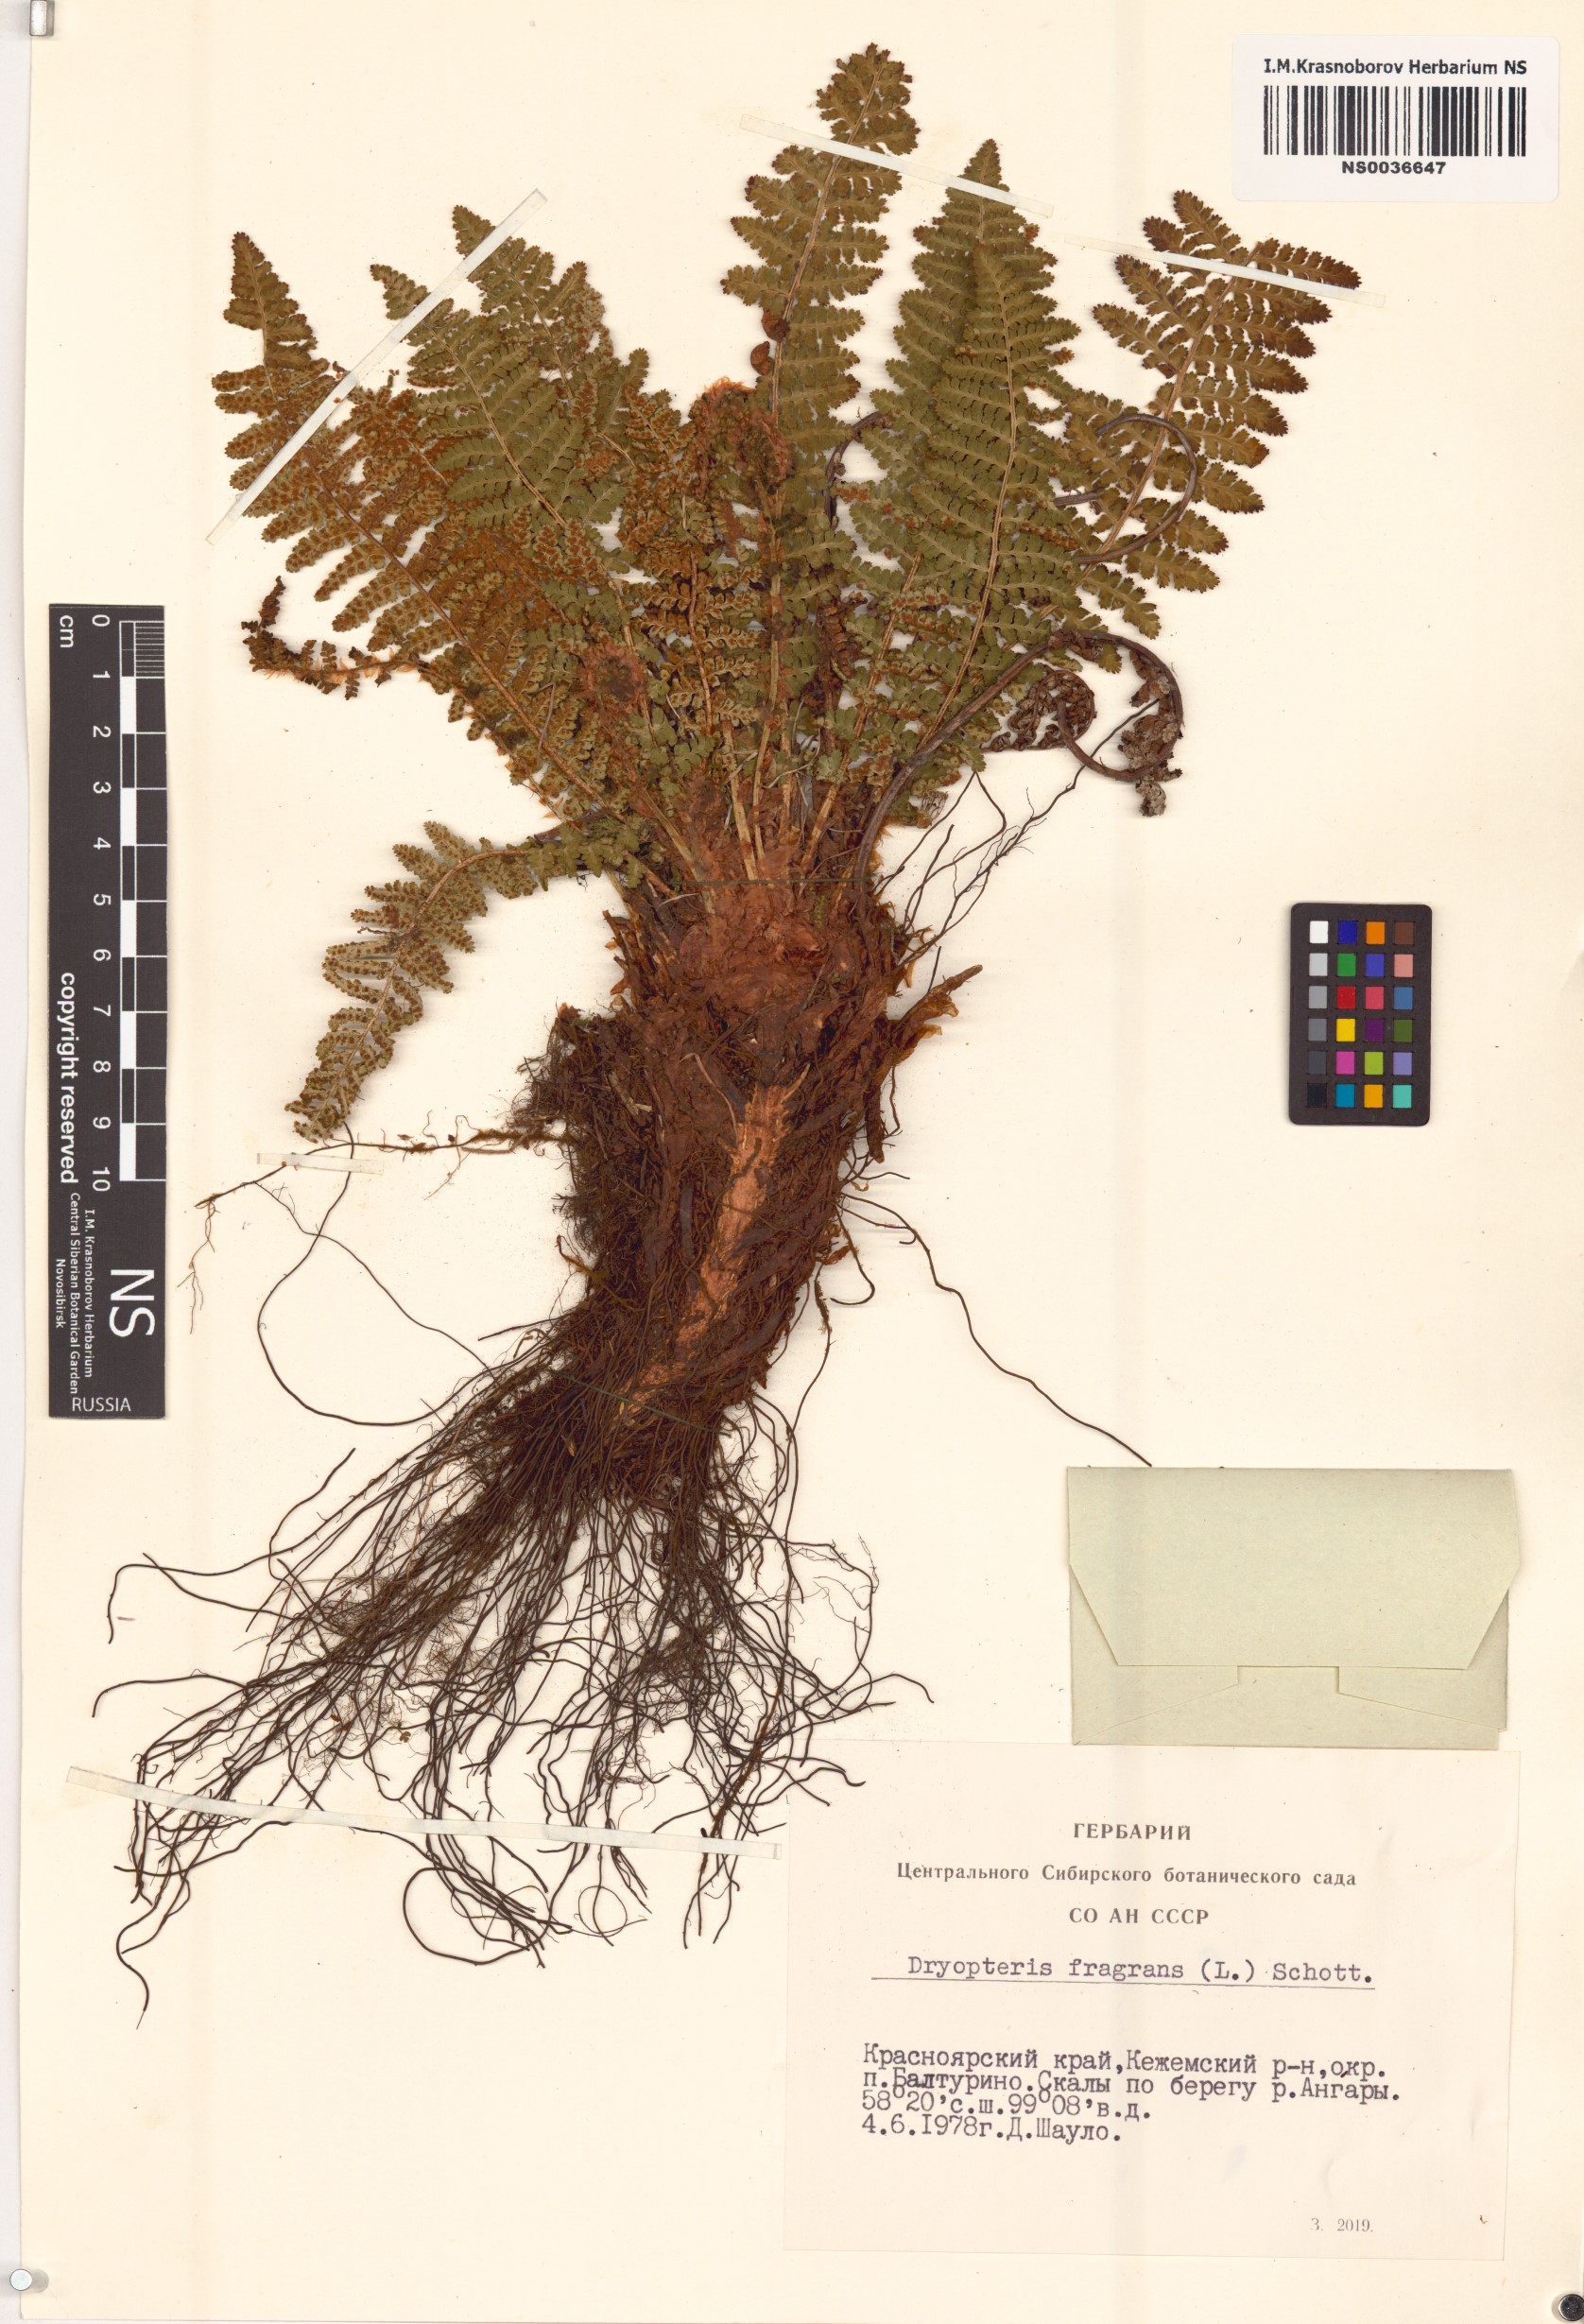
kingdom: Plantae
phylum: Tracheophyta
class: Polypodiopsida
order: Polypodiales
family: Dryopteridaceae
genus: Dryopteris
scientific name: Dryopteris fragrans
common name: Fragrant wood fern
